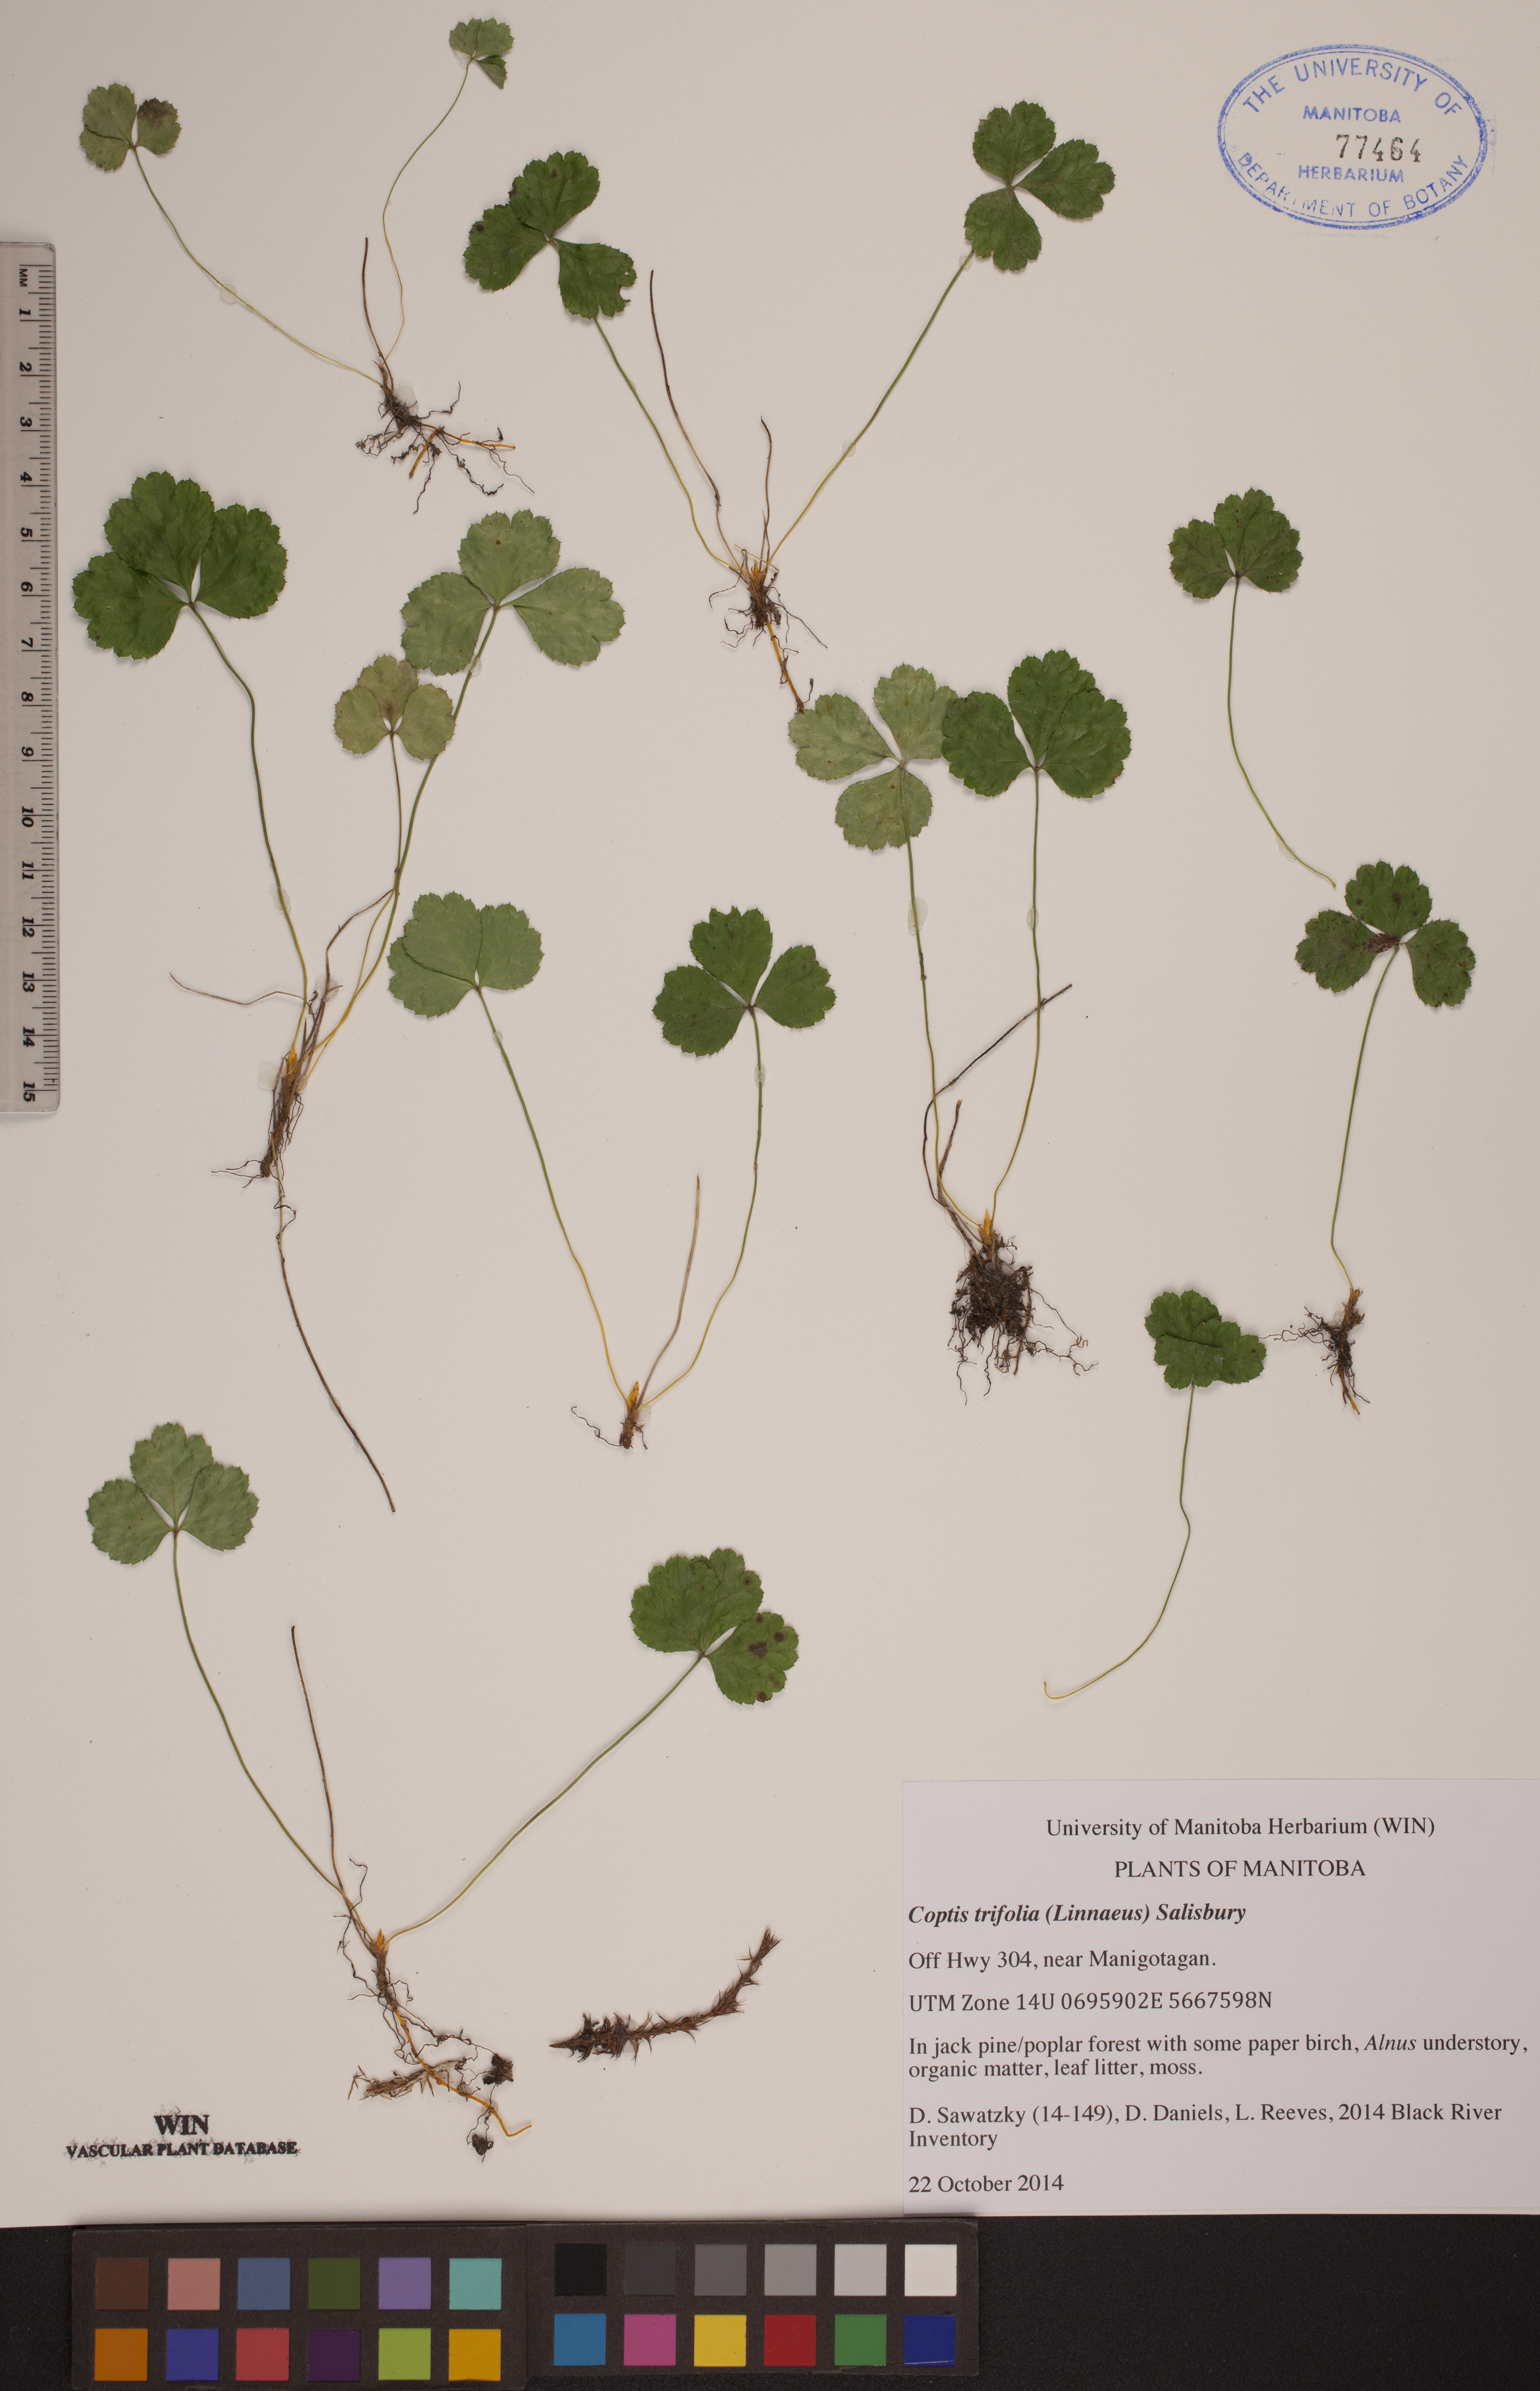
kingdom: Plantae
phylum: Tracheophyta
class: Magnoliopsida
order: Ranunculales
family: Ranunculaceae
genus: Coptis
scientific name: Coptis trifolia
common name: Canker-root
